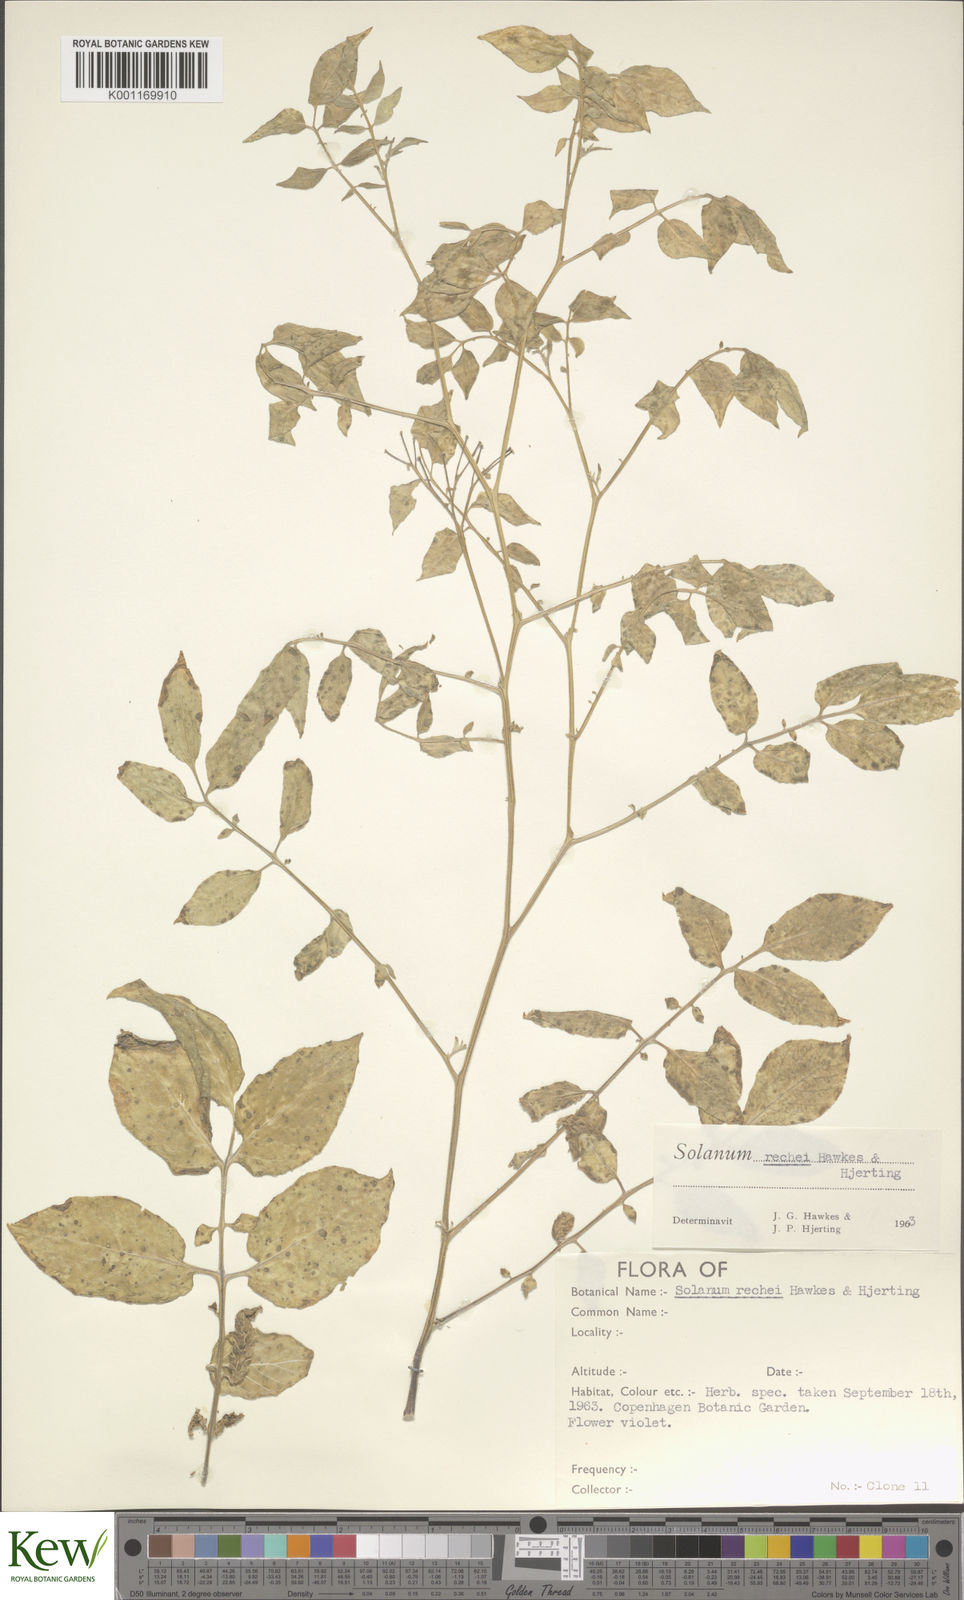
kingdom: Plantae
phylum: Tracheophyta
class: Magnoliopsida
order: Solanales
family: Solanaceae
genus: Solanum
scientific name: Solanum rechei
